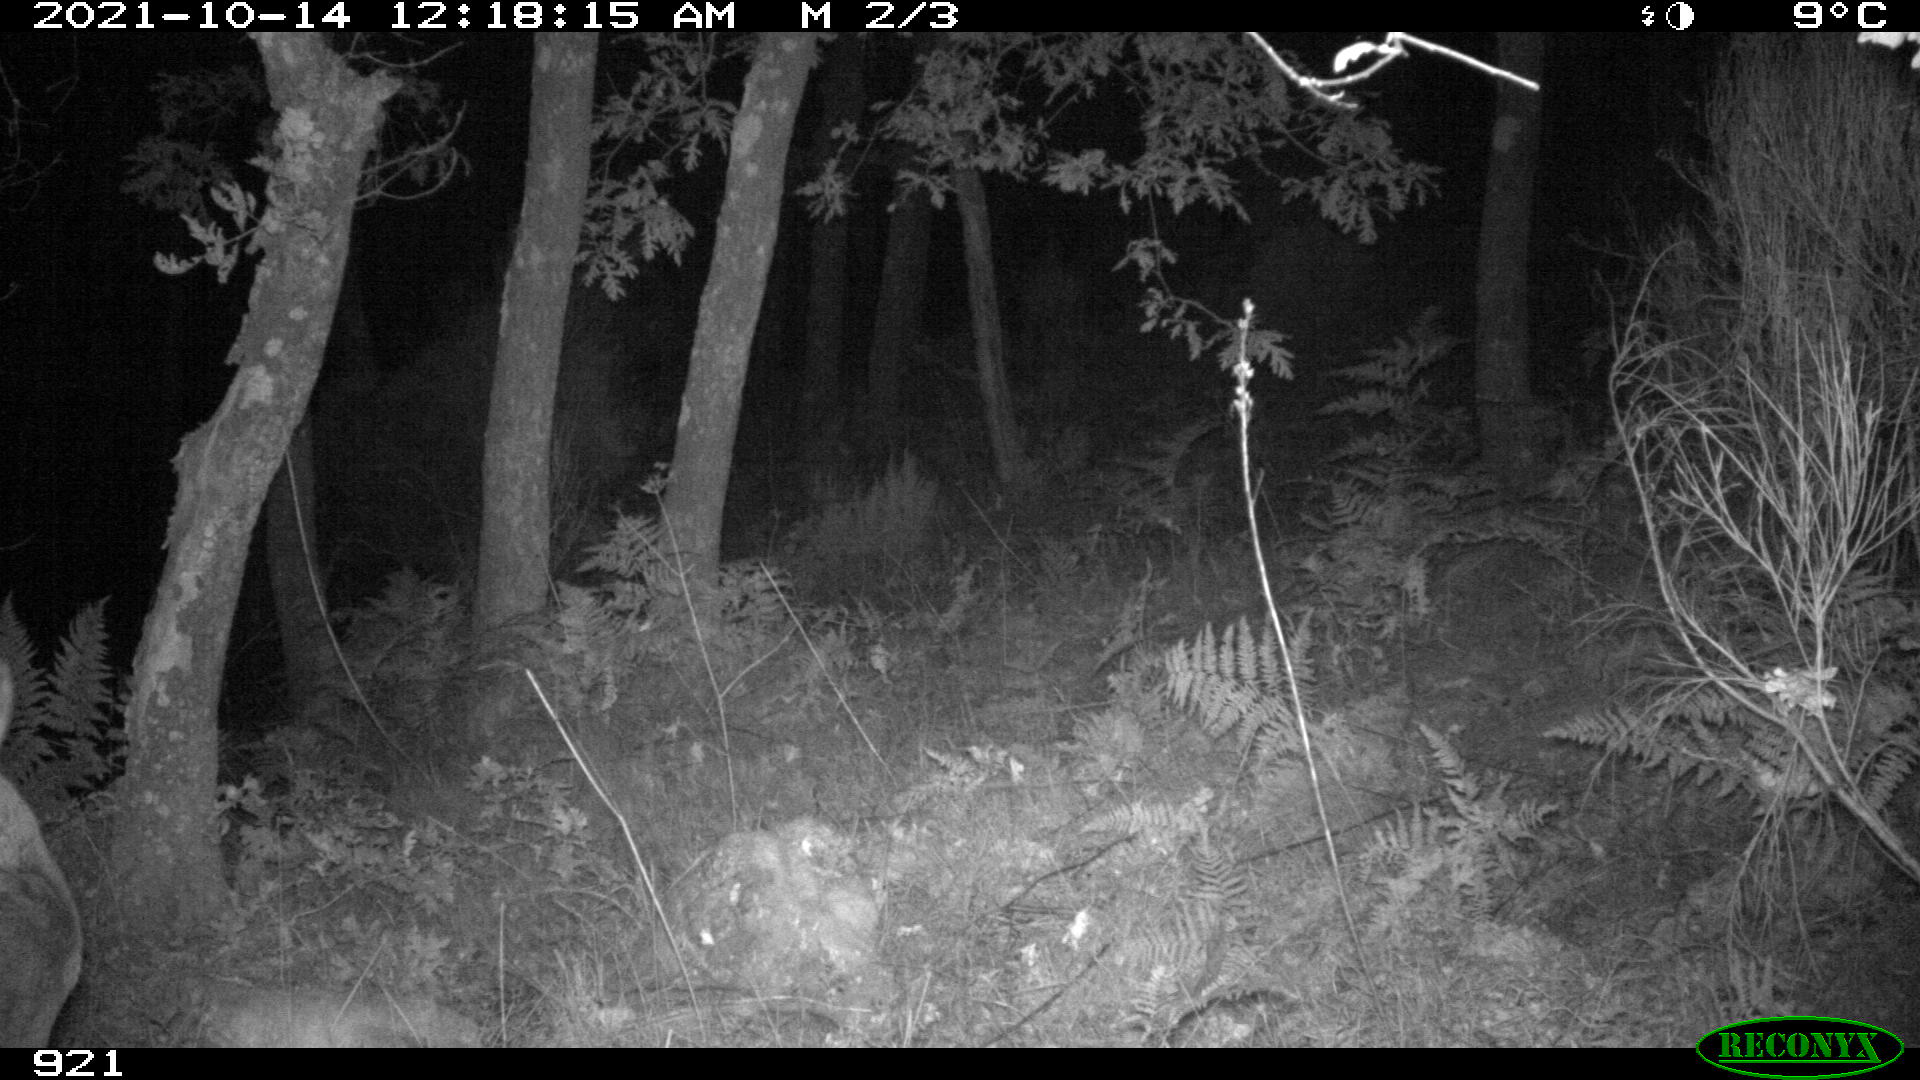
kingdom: Animalia
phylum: Chordata
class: Mammalia
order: Artiodactyla
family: Cervidae
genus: Capreolus
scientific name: Capreolus capreolus
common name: Western roe deer
